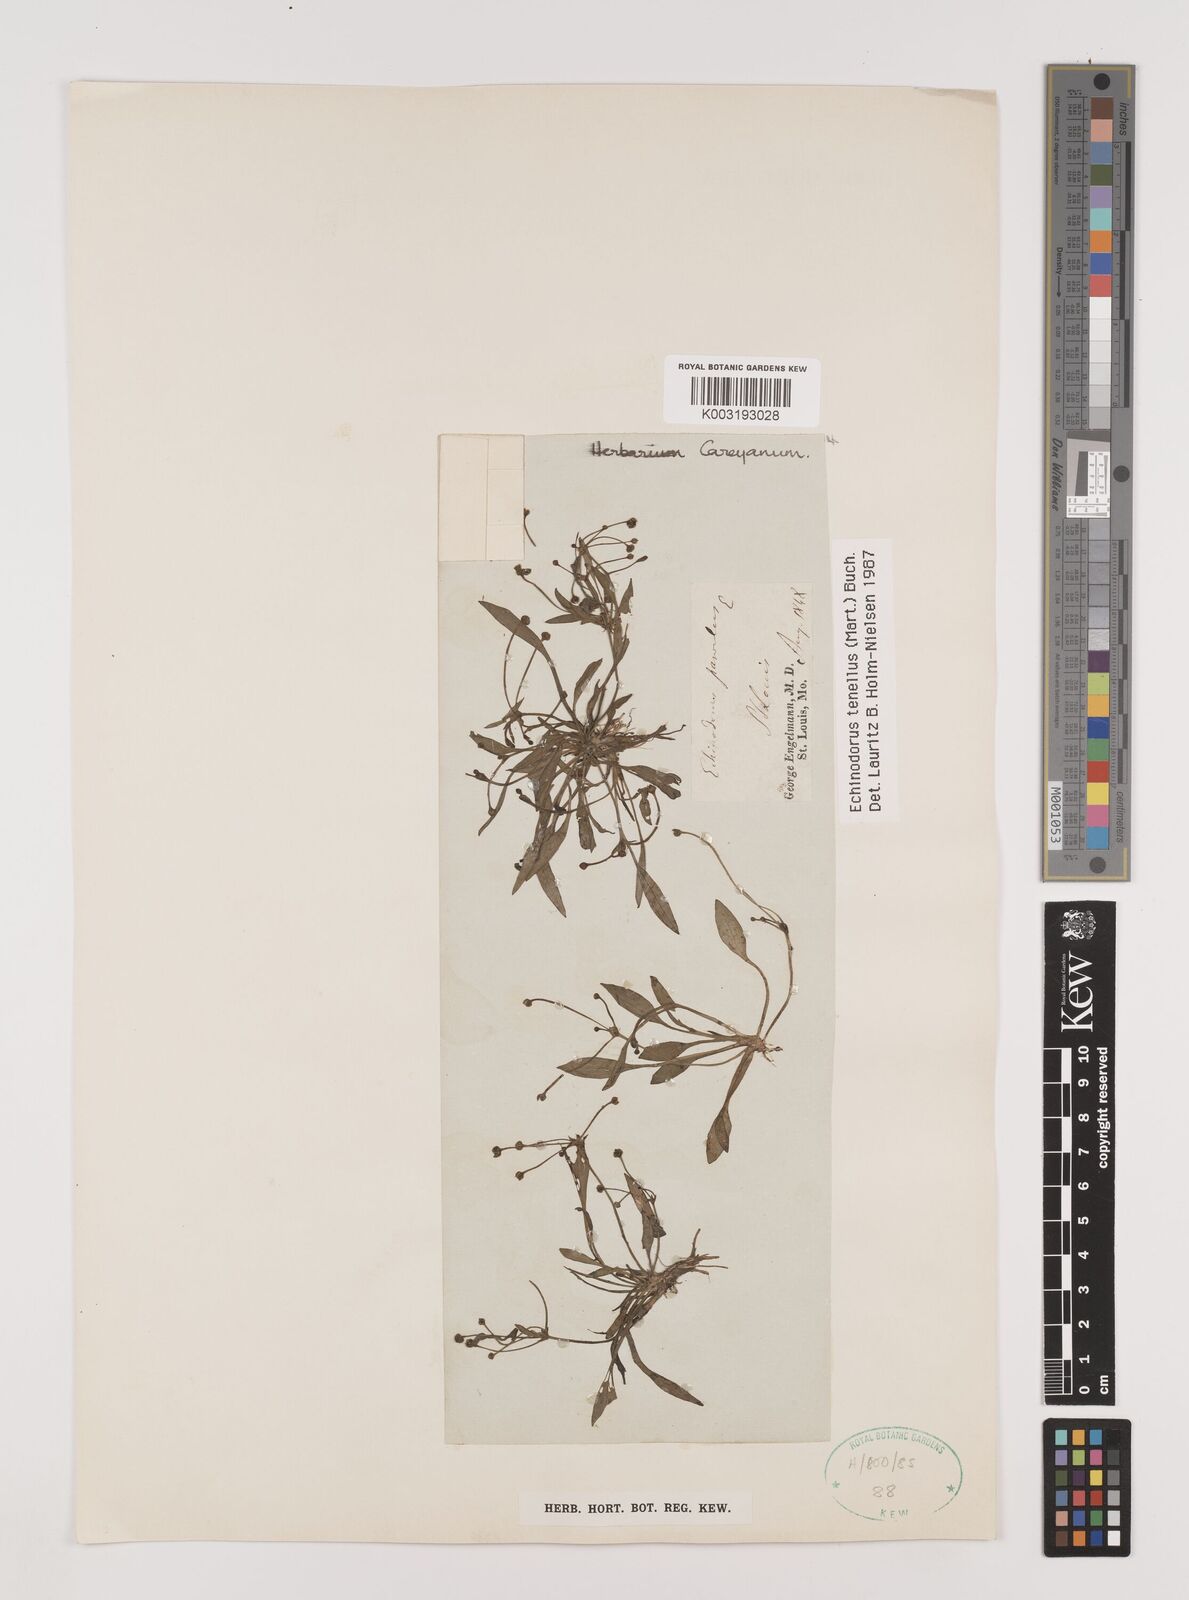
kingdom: Plantae
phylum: Tracheophyta
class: Liliopsida
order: Alismatales
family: Alismataceae
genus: Helanthium
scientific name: Helanthium tenellum
